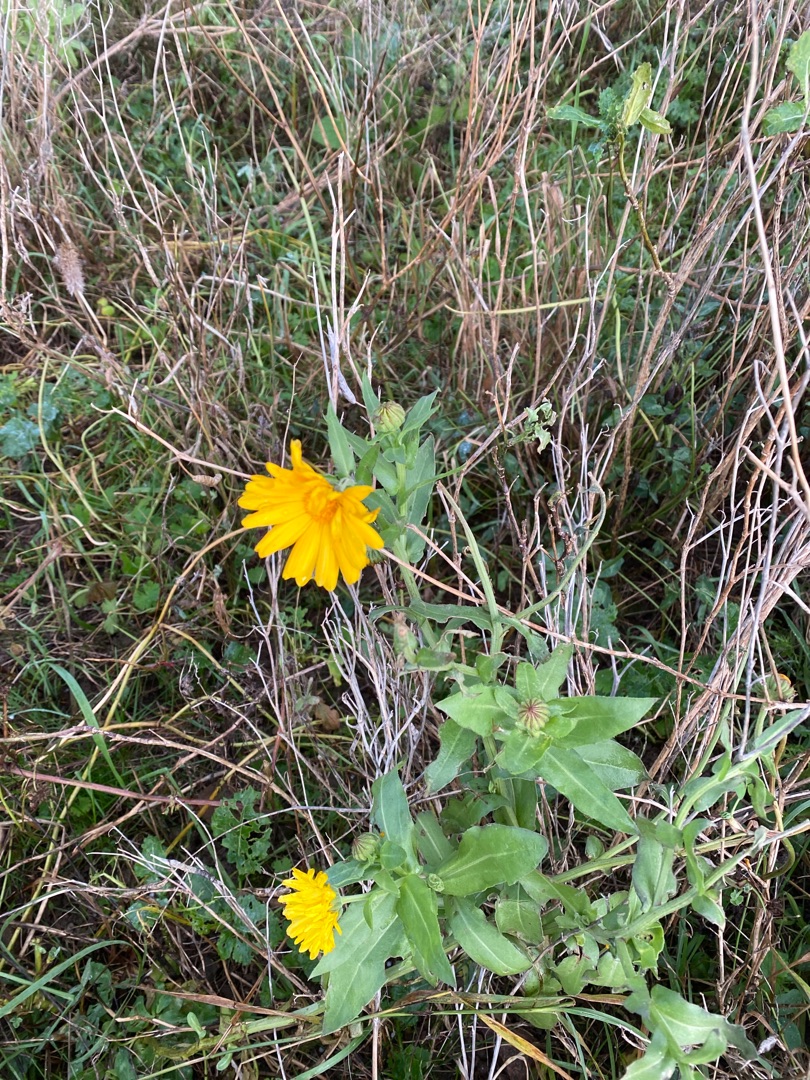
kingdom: Plantae
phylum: Tracheophyta
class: Magnoliopsida
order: Asterales
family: Asteraceae
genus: Calendula
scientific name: Calendula officinalis
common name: Have-morgenfrue
